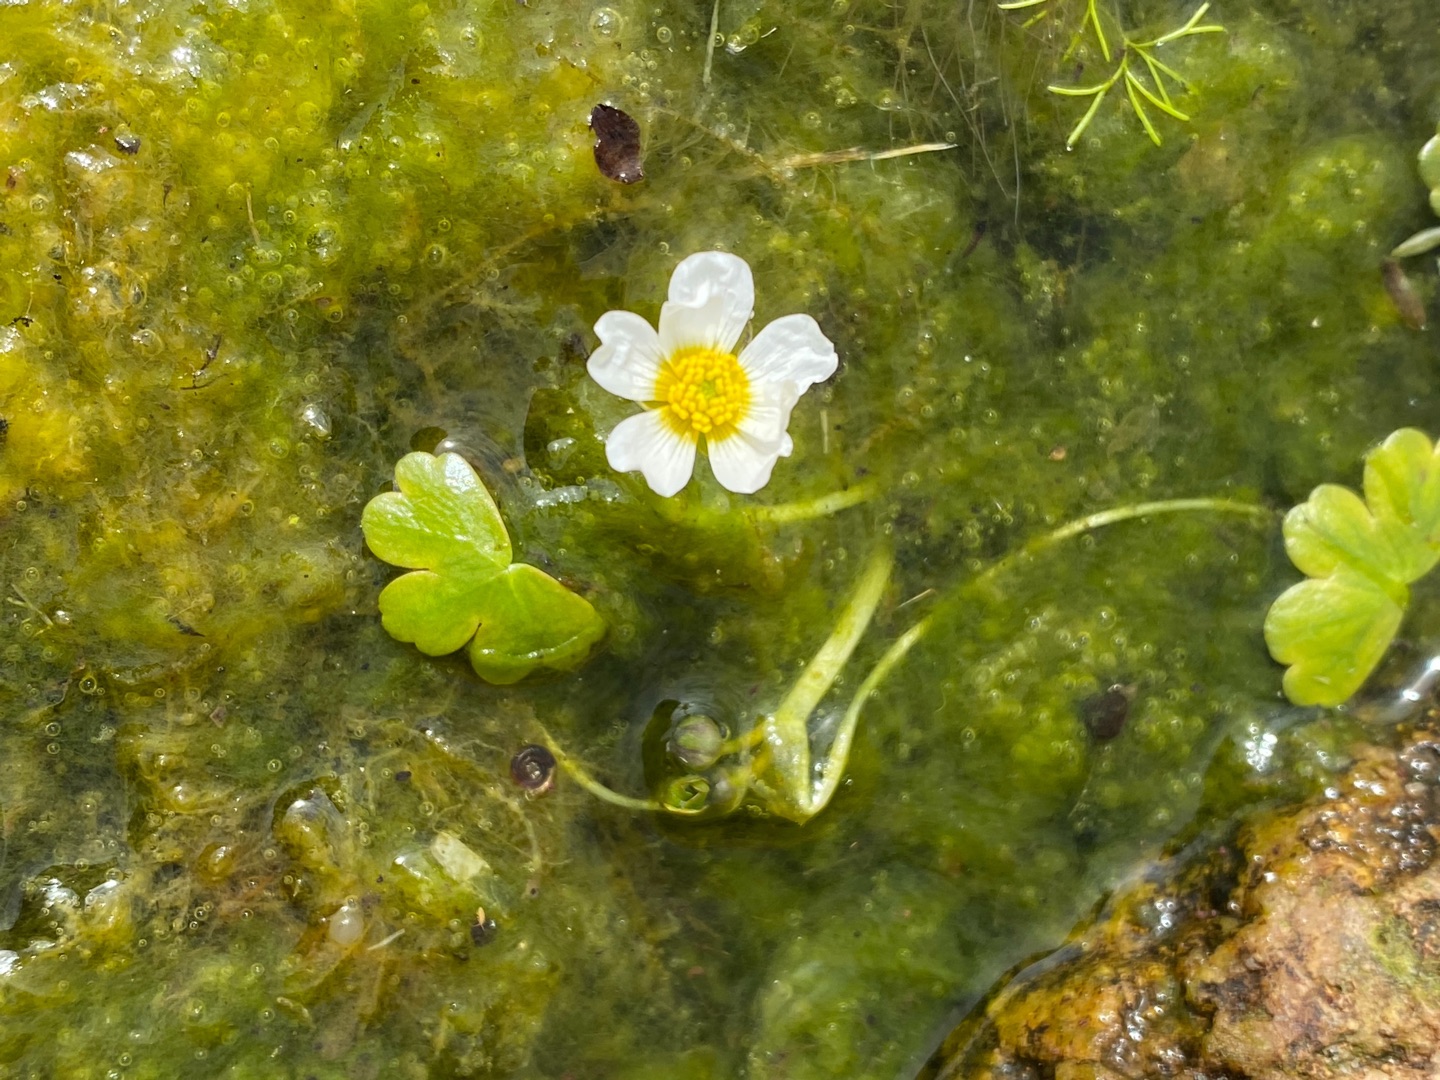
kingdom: Plantae
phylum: Tracheophyta
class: Magnoliopsida
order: Ranunculales
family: Ranunculaceae
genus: Ranunculus
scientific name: Ranunculus peltatus
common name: Storblomstret vandranunkel
